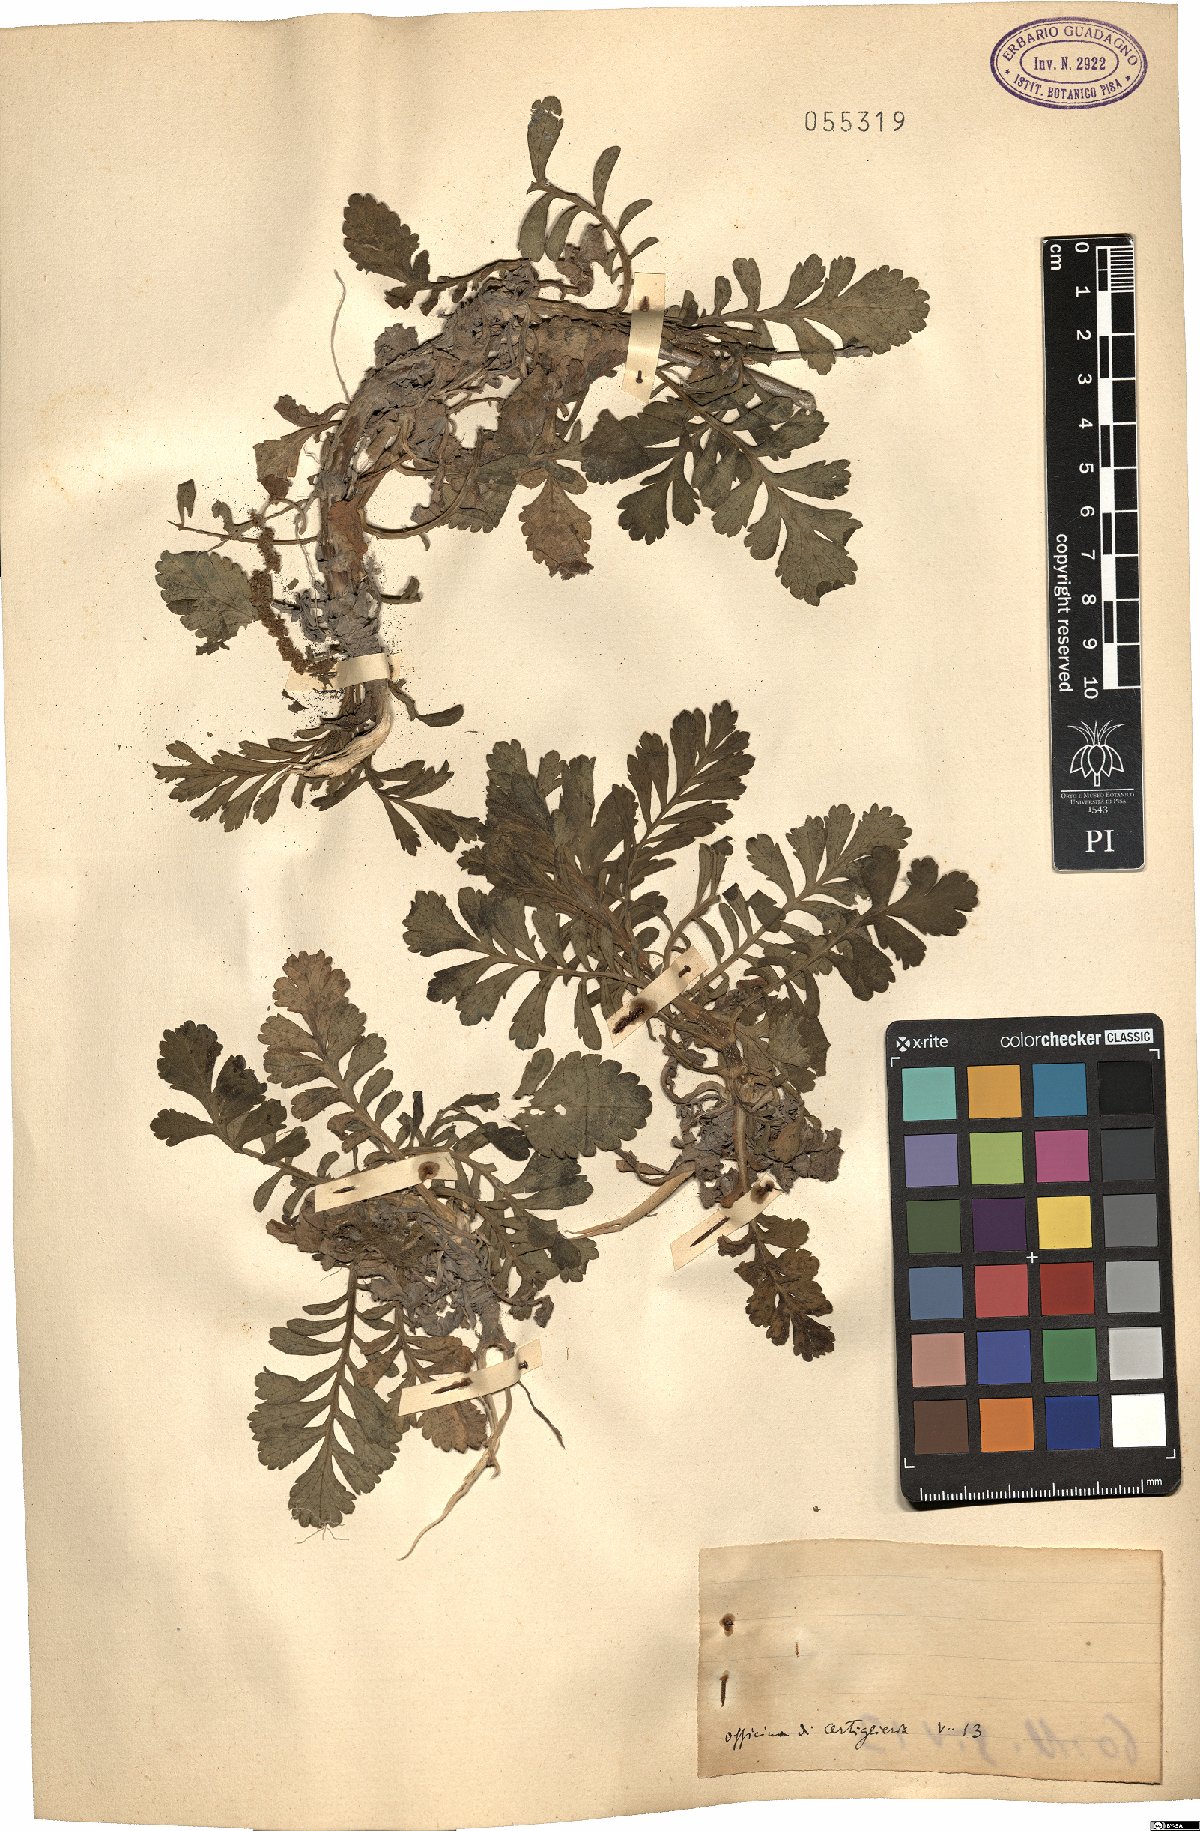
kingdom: Plantae
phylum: Tracheophyta
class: Magnoliopsida
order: Dipsacales
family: Caprifoliaceae
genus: Scabiosa
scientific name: Scabiosa
